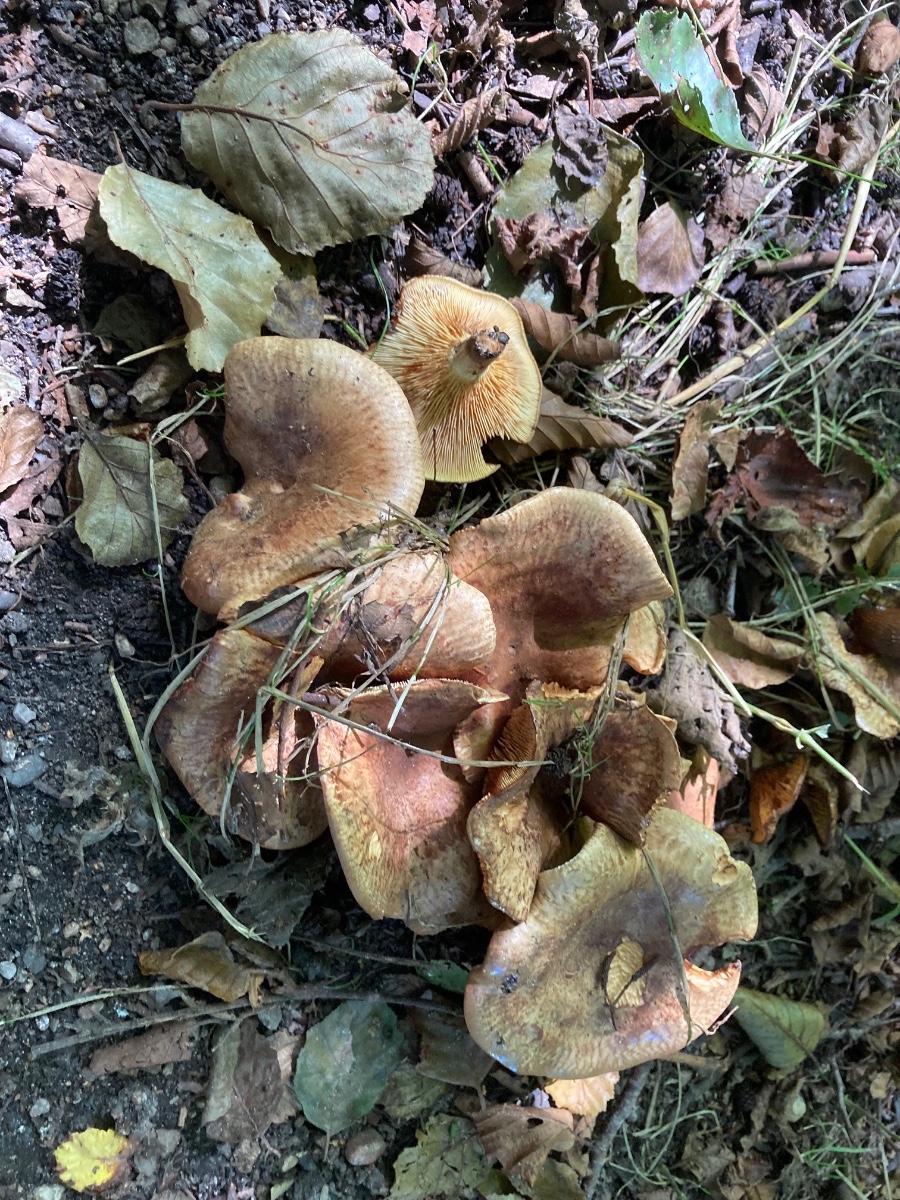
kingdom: Fungi
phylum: Basidiomycota
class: Agaricomycetes
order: Boletales
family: Paxillaceae
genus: Paxillus
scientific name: Paxillus olivellus
